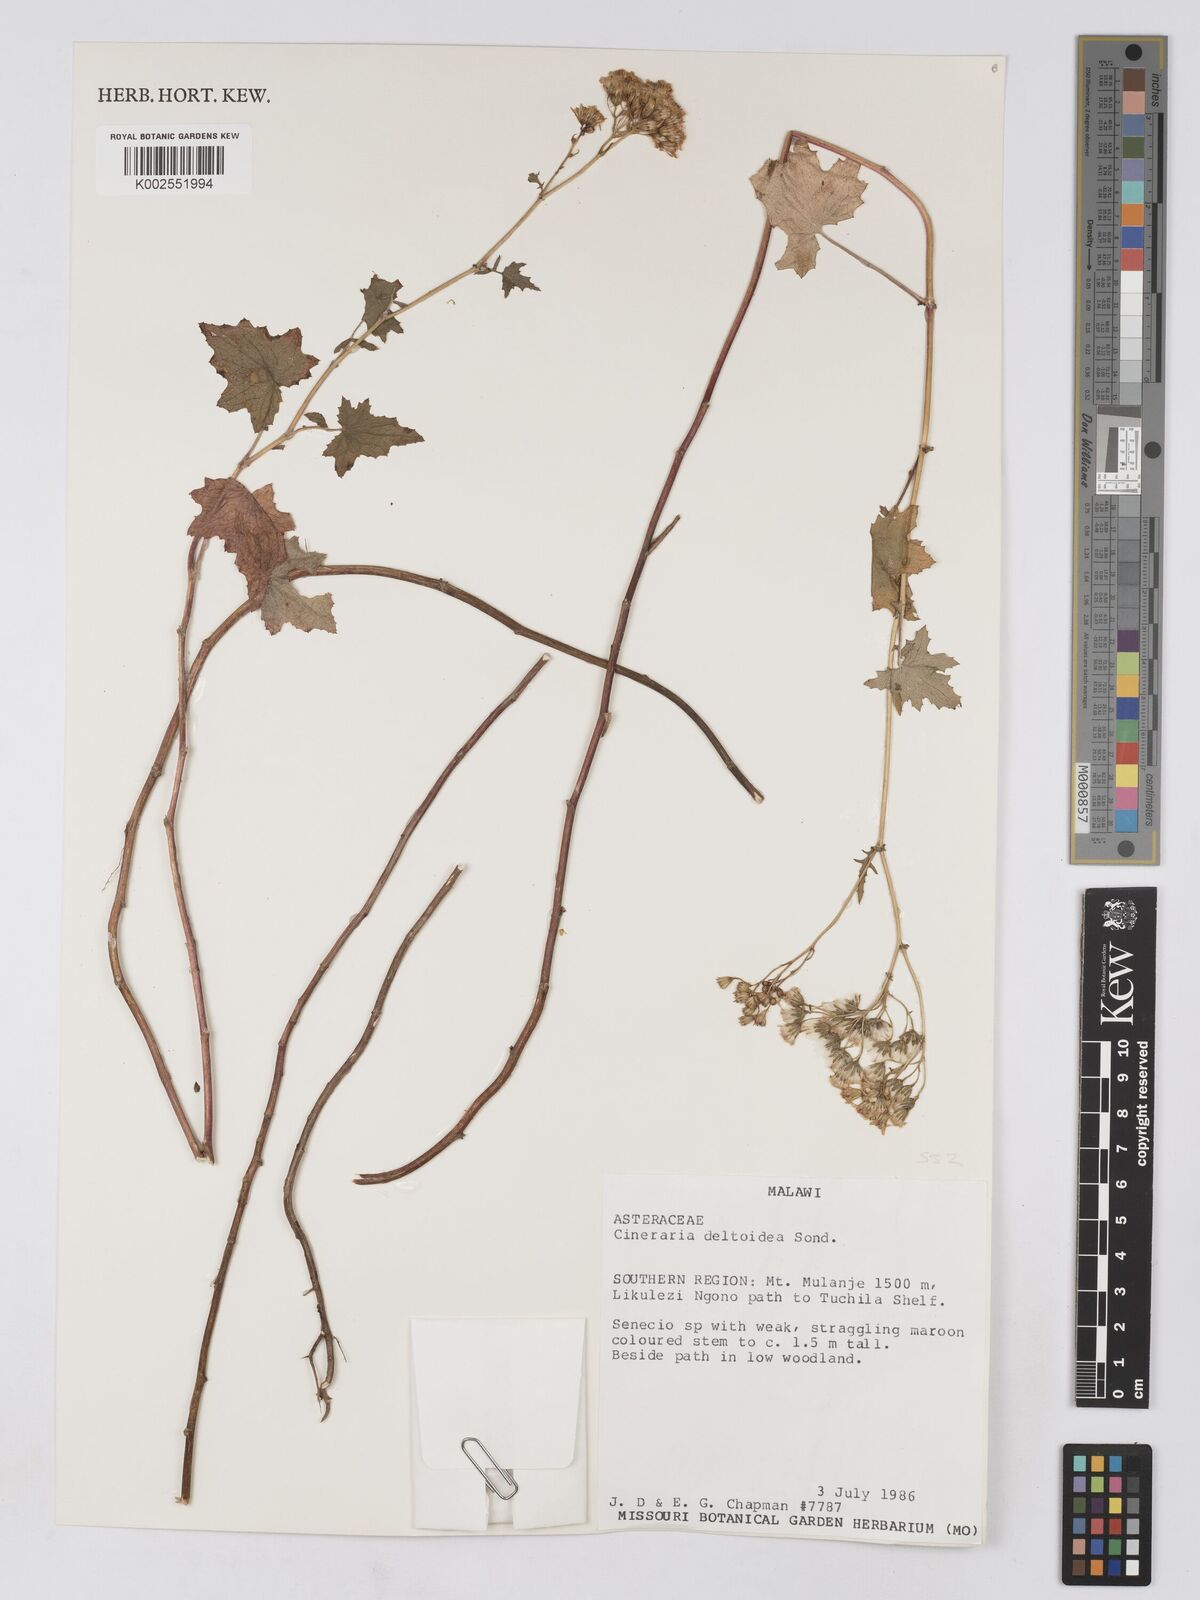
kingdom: Plantae
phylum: Tracheophyta
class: Magnoliopsida
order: Asterales
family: Asteraceae
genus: Cineraria
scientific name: Cineraria deltoidea
